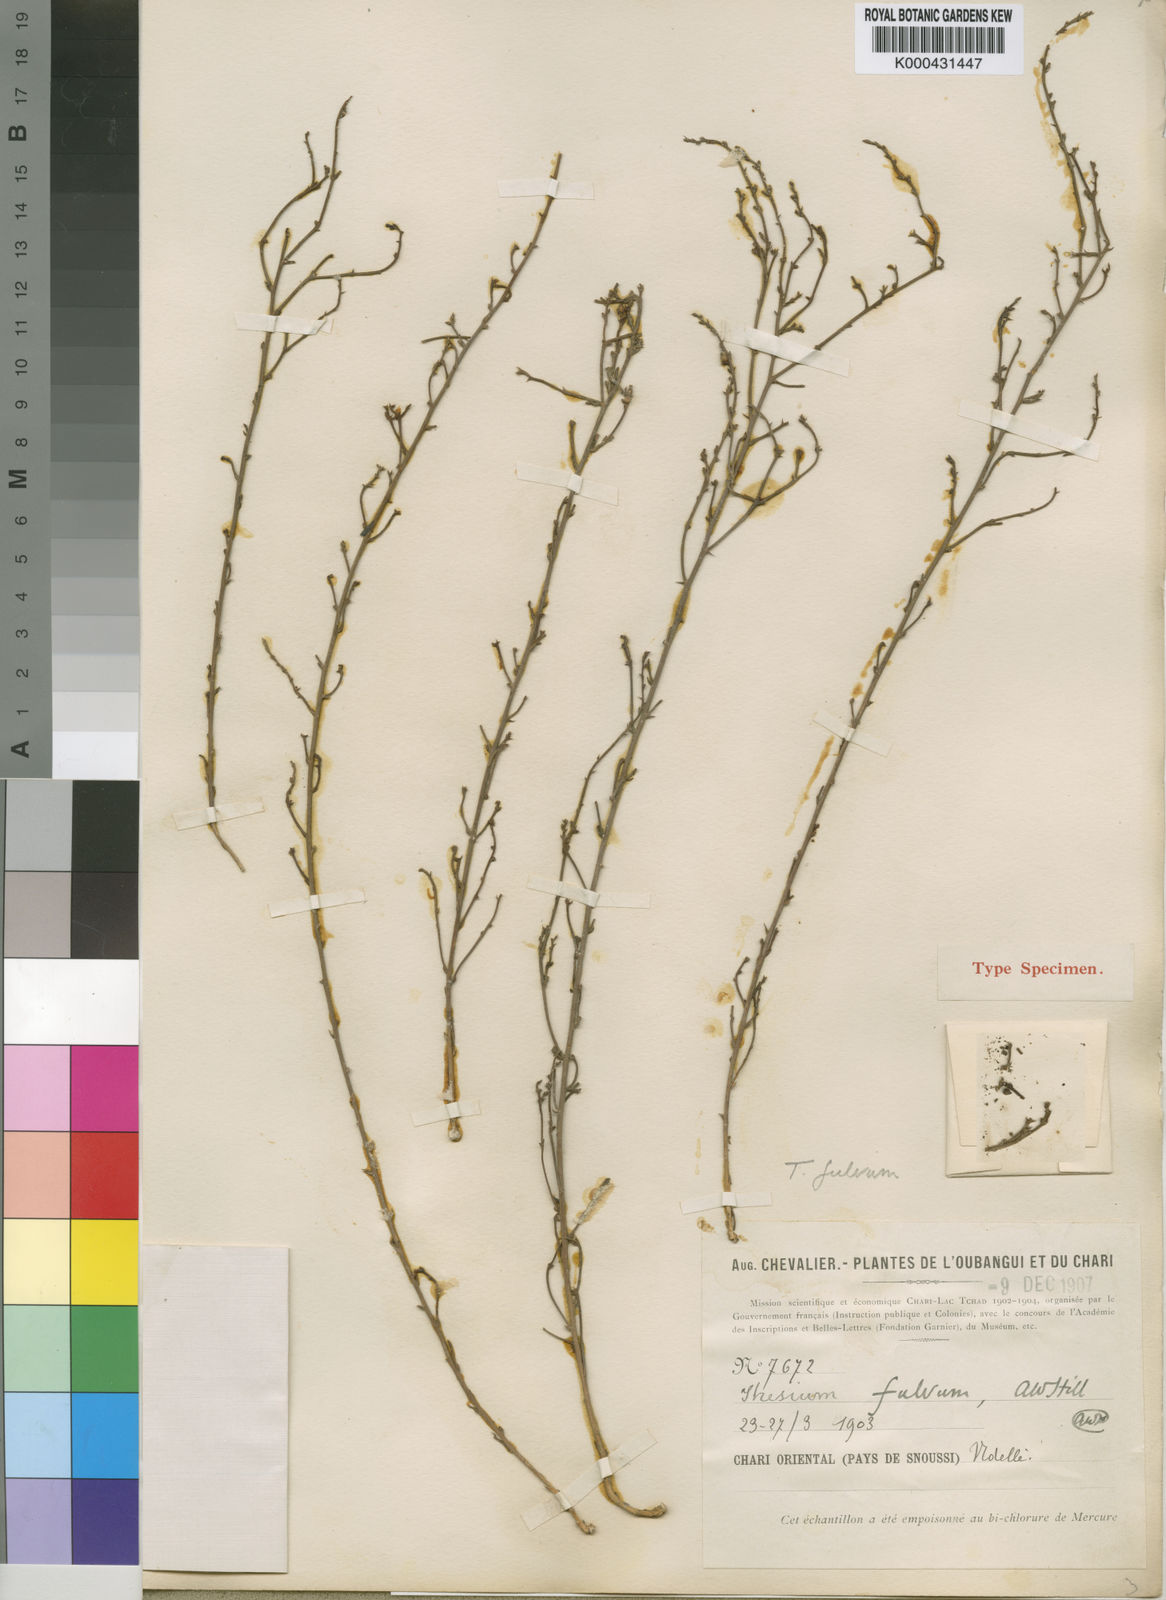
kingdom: Plantae
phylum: Tracheophyta
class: Magnoliopsida
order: Santalales
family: Thesiaceae
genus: Thesium
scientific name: Thesium fulvum
